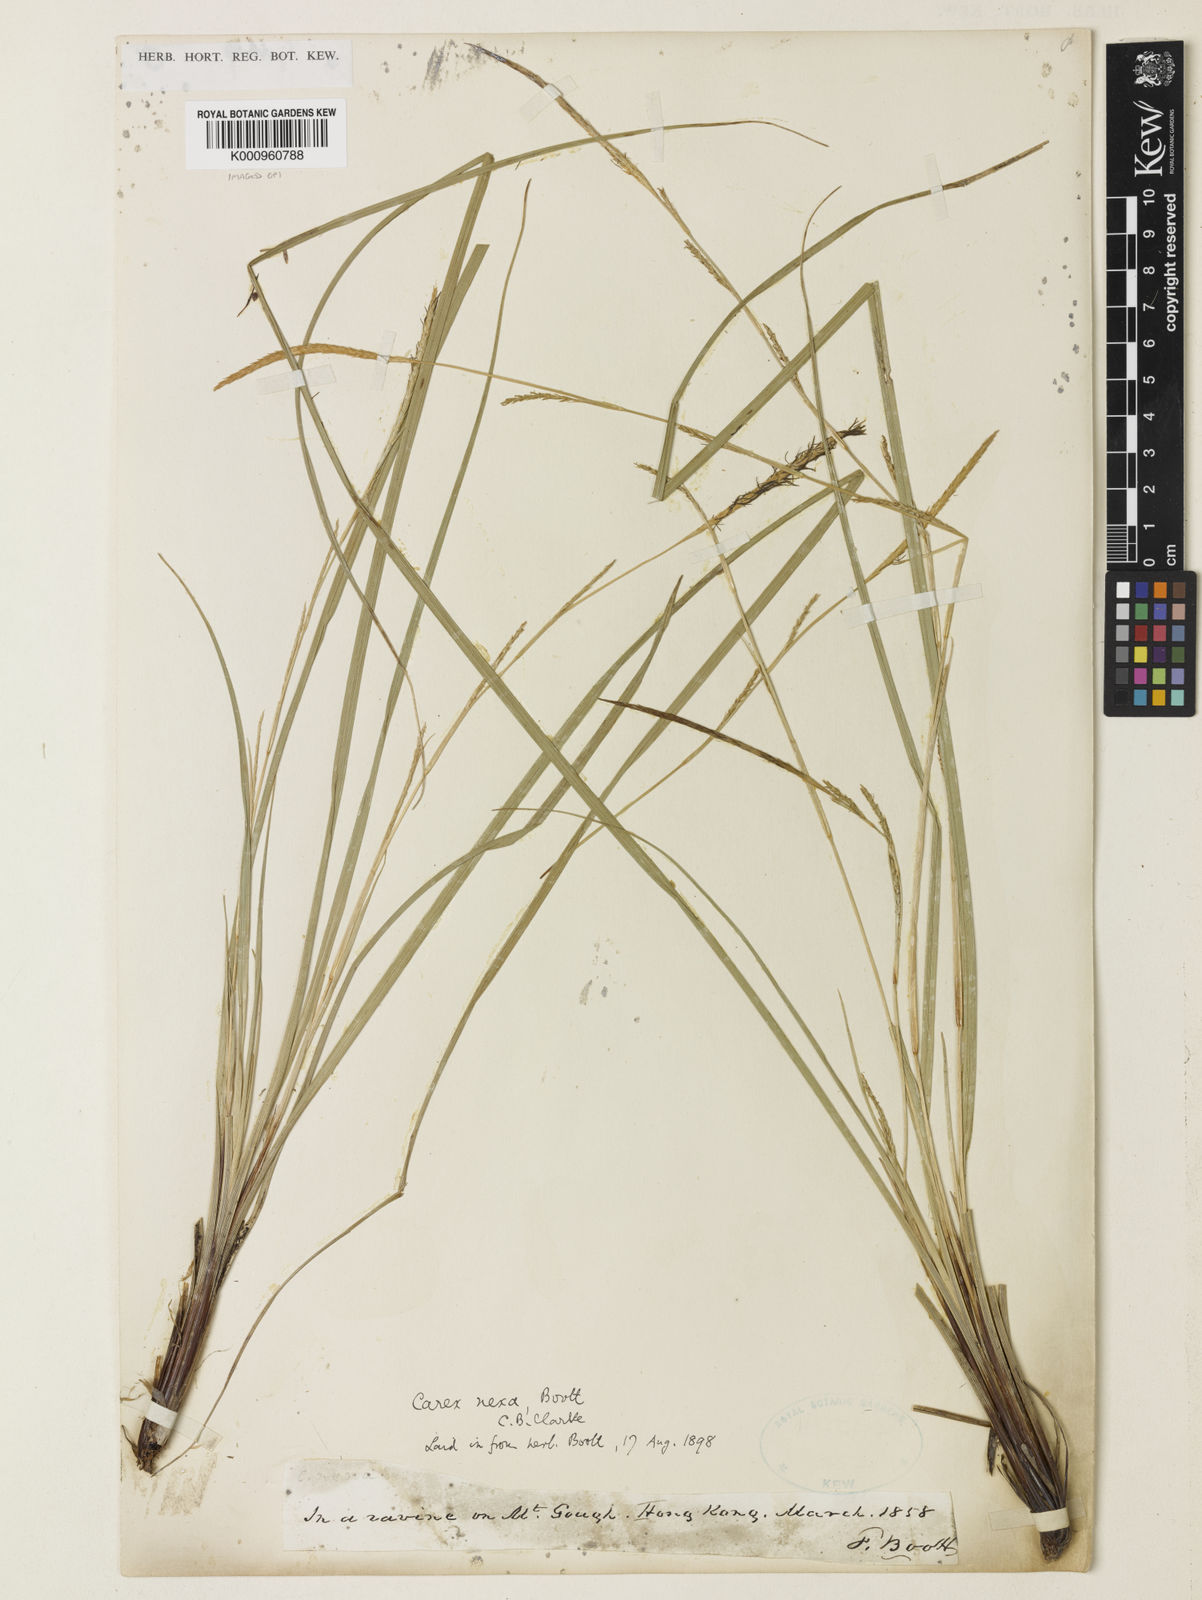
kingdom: Plantae
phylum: Tracheophyta
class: Liliopsida
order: Poales
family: Cyperaceae
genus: Carex
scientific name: Carex
